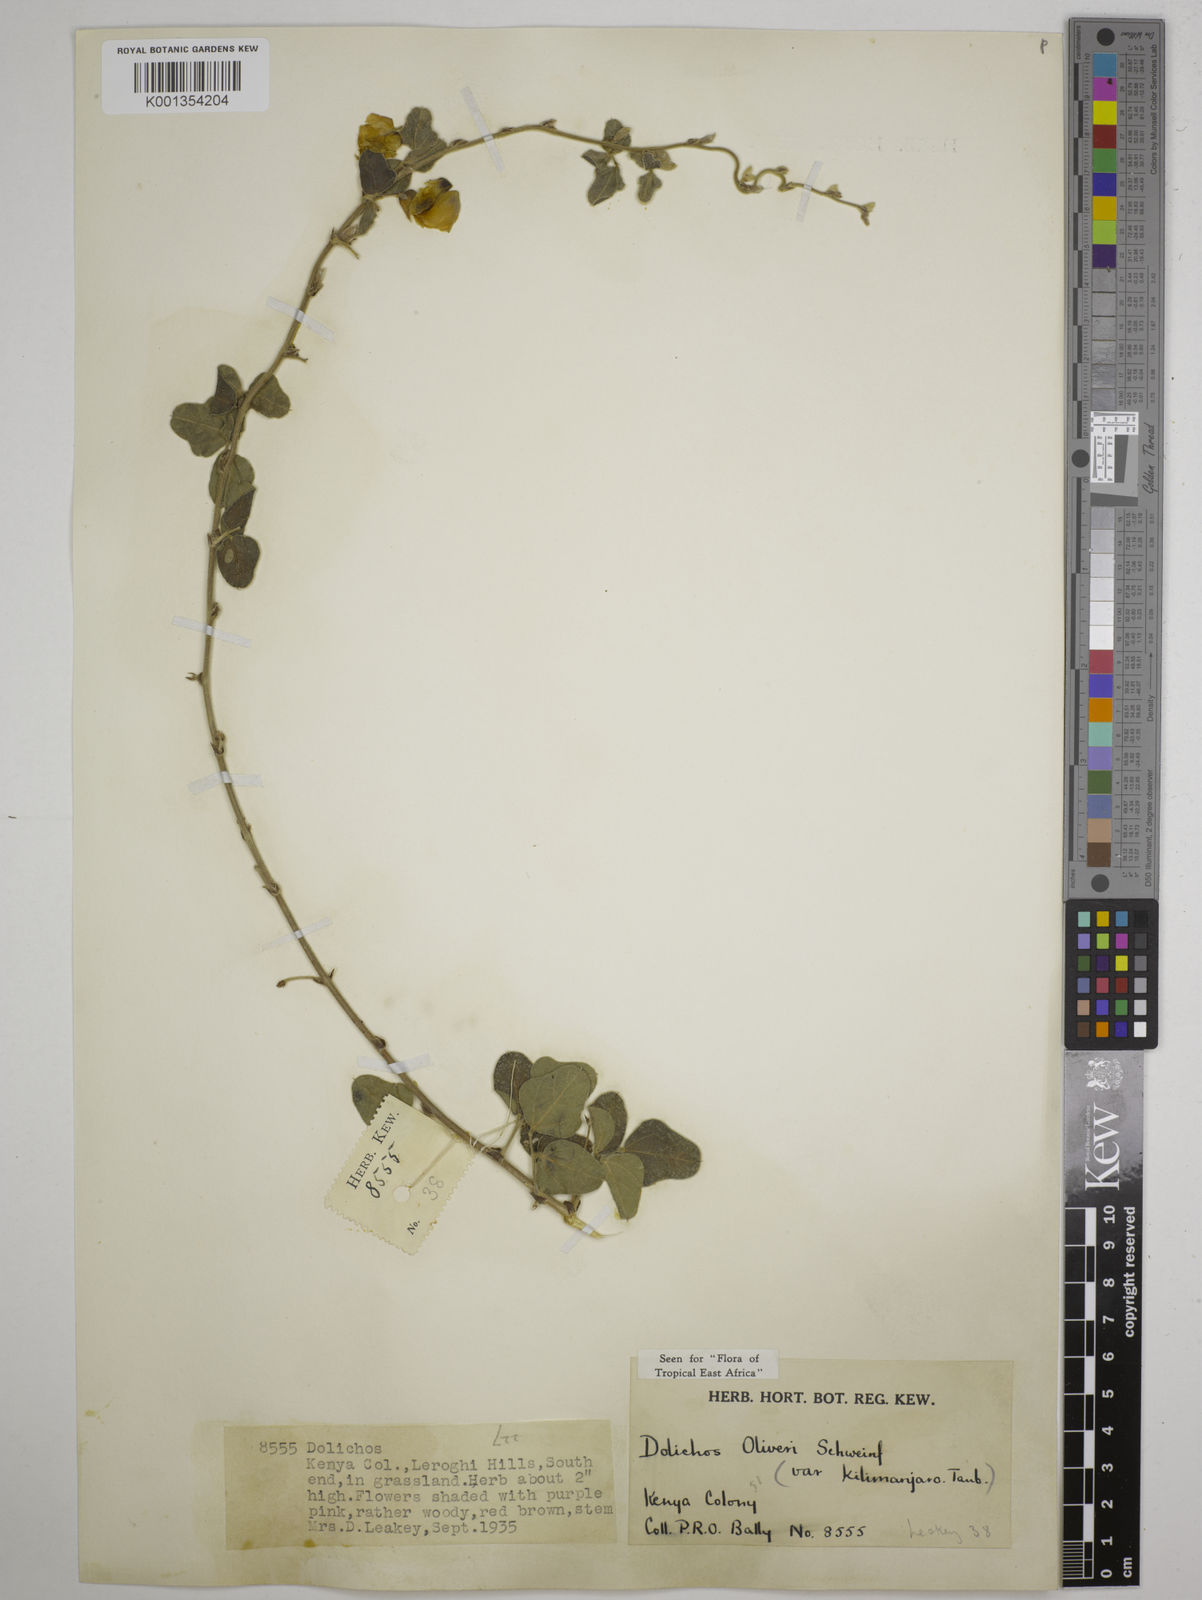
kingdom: Plantae
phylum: Tracheophyta
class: Magnoliopsida
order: Fabales
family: Fabaceae
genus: Dolichos
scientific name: Dolichos
